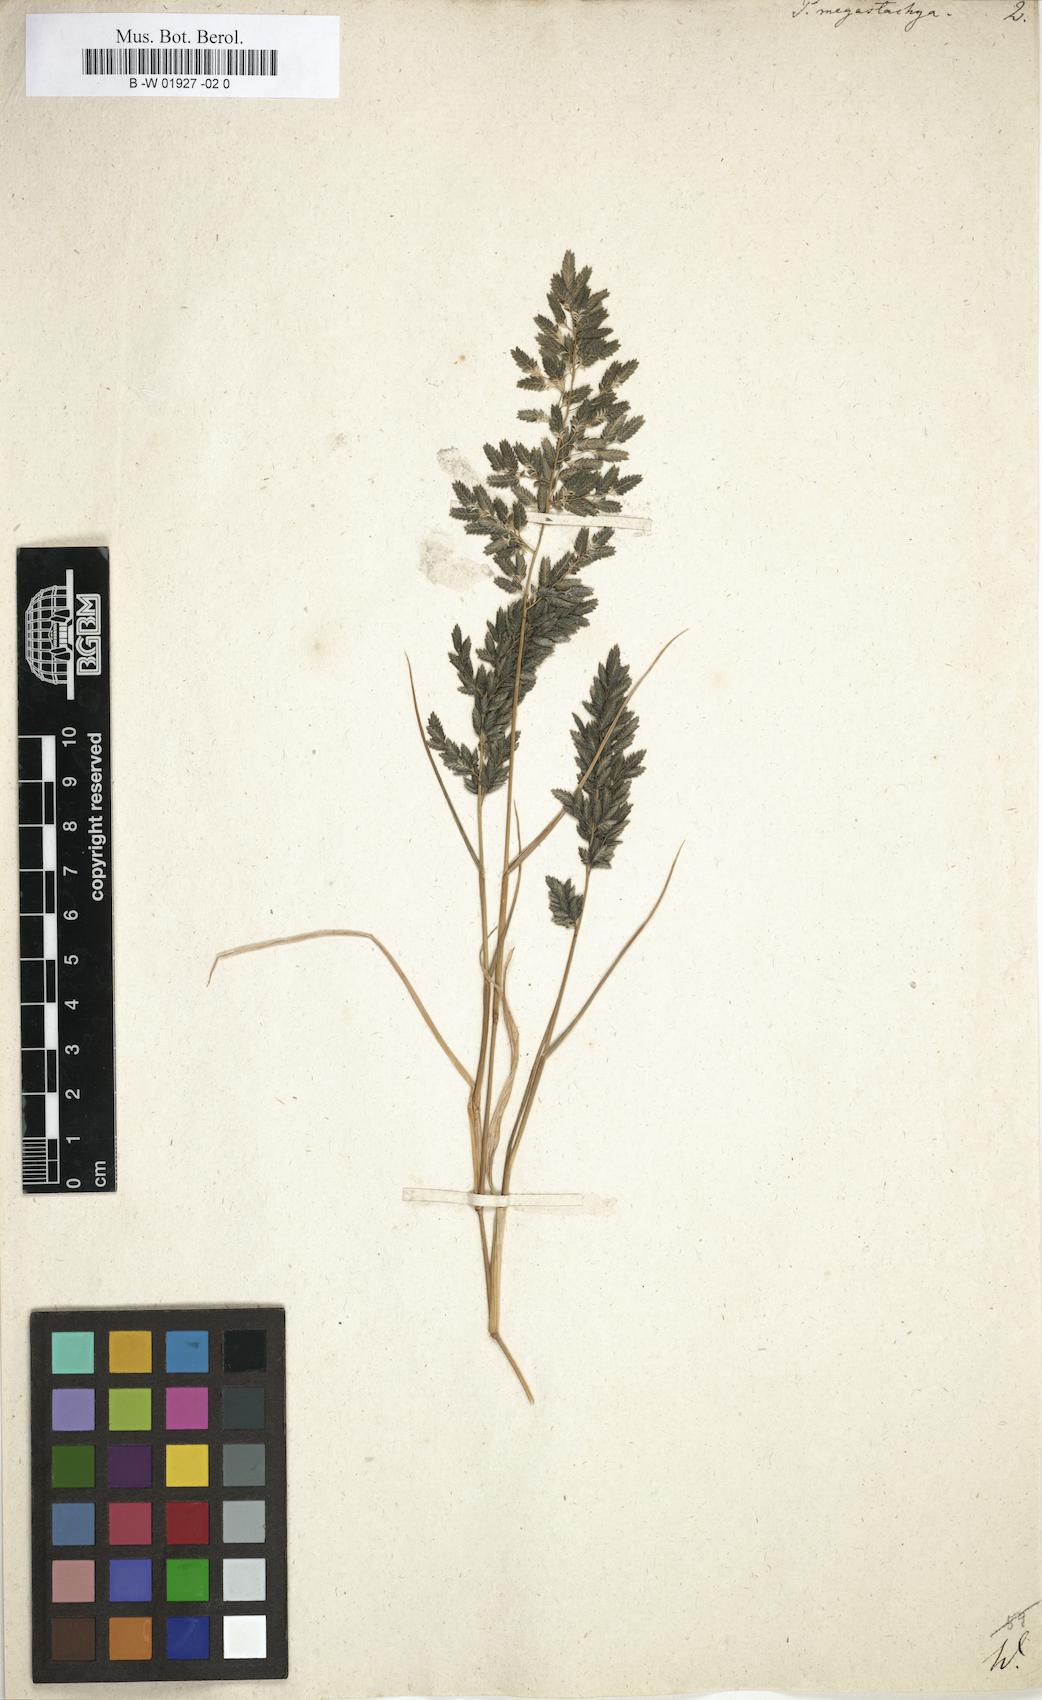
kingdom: Plantae
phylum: Tracheophyta
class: Liliopsida
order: Poales
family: Poaceae
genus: Eragrostis
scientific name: Eragrostis cilianensis
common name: Stinkgrass
